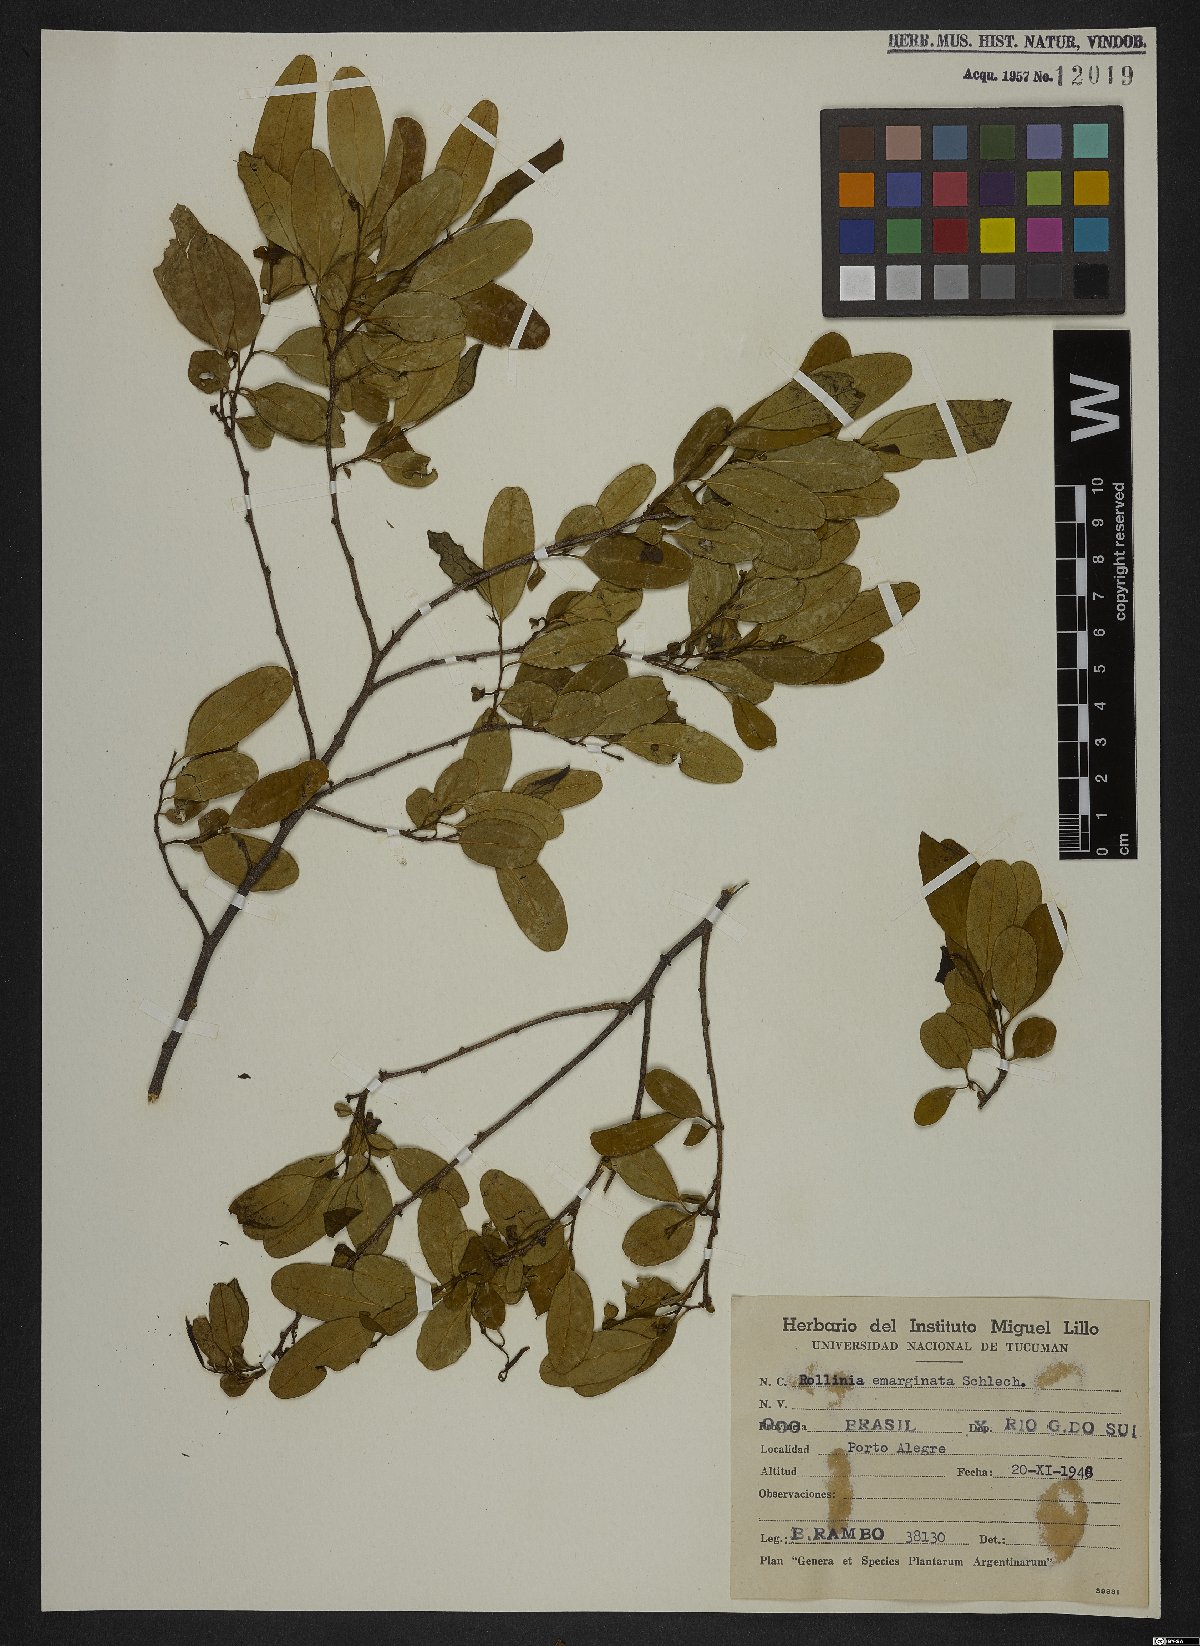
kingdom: Plantae
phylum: Tracheophyta
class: Magnoliopsida
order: Magnoliales
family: Annonaceae
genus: Annona
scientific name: Annona emarginata
